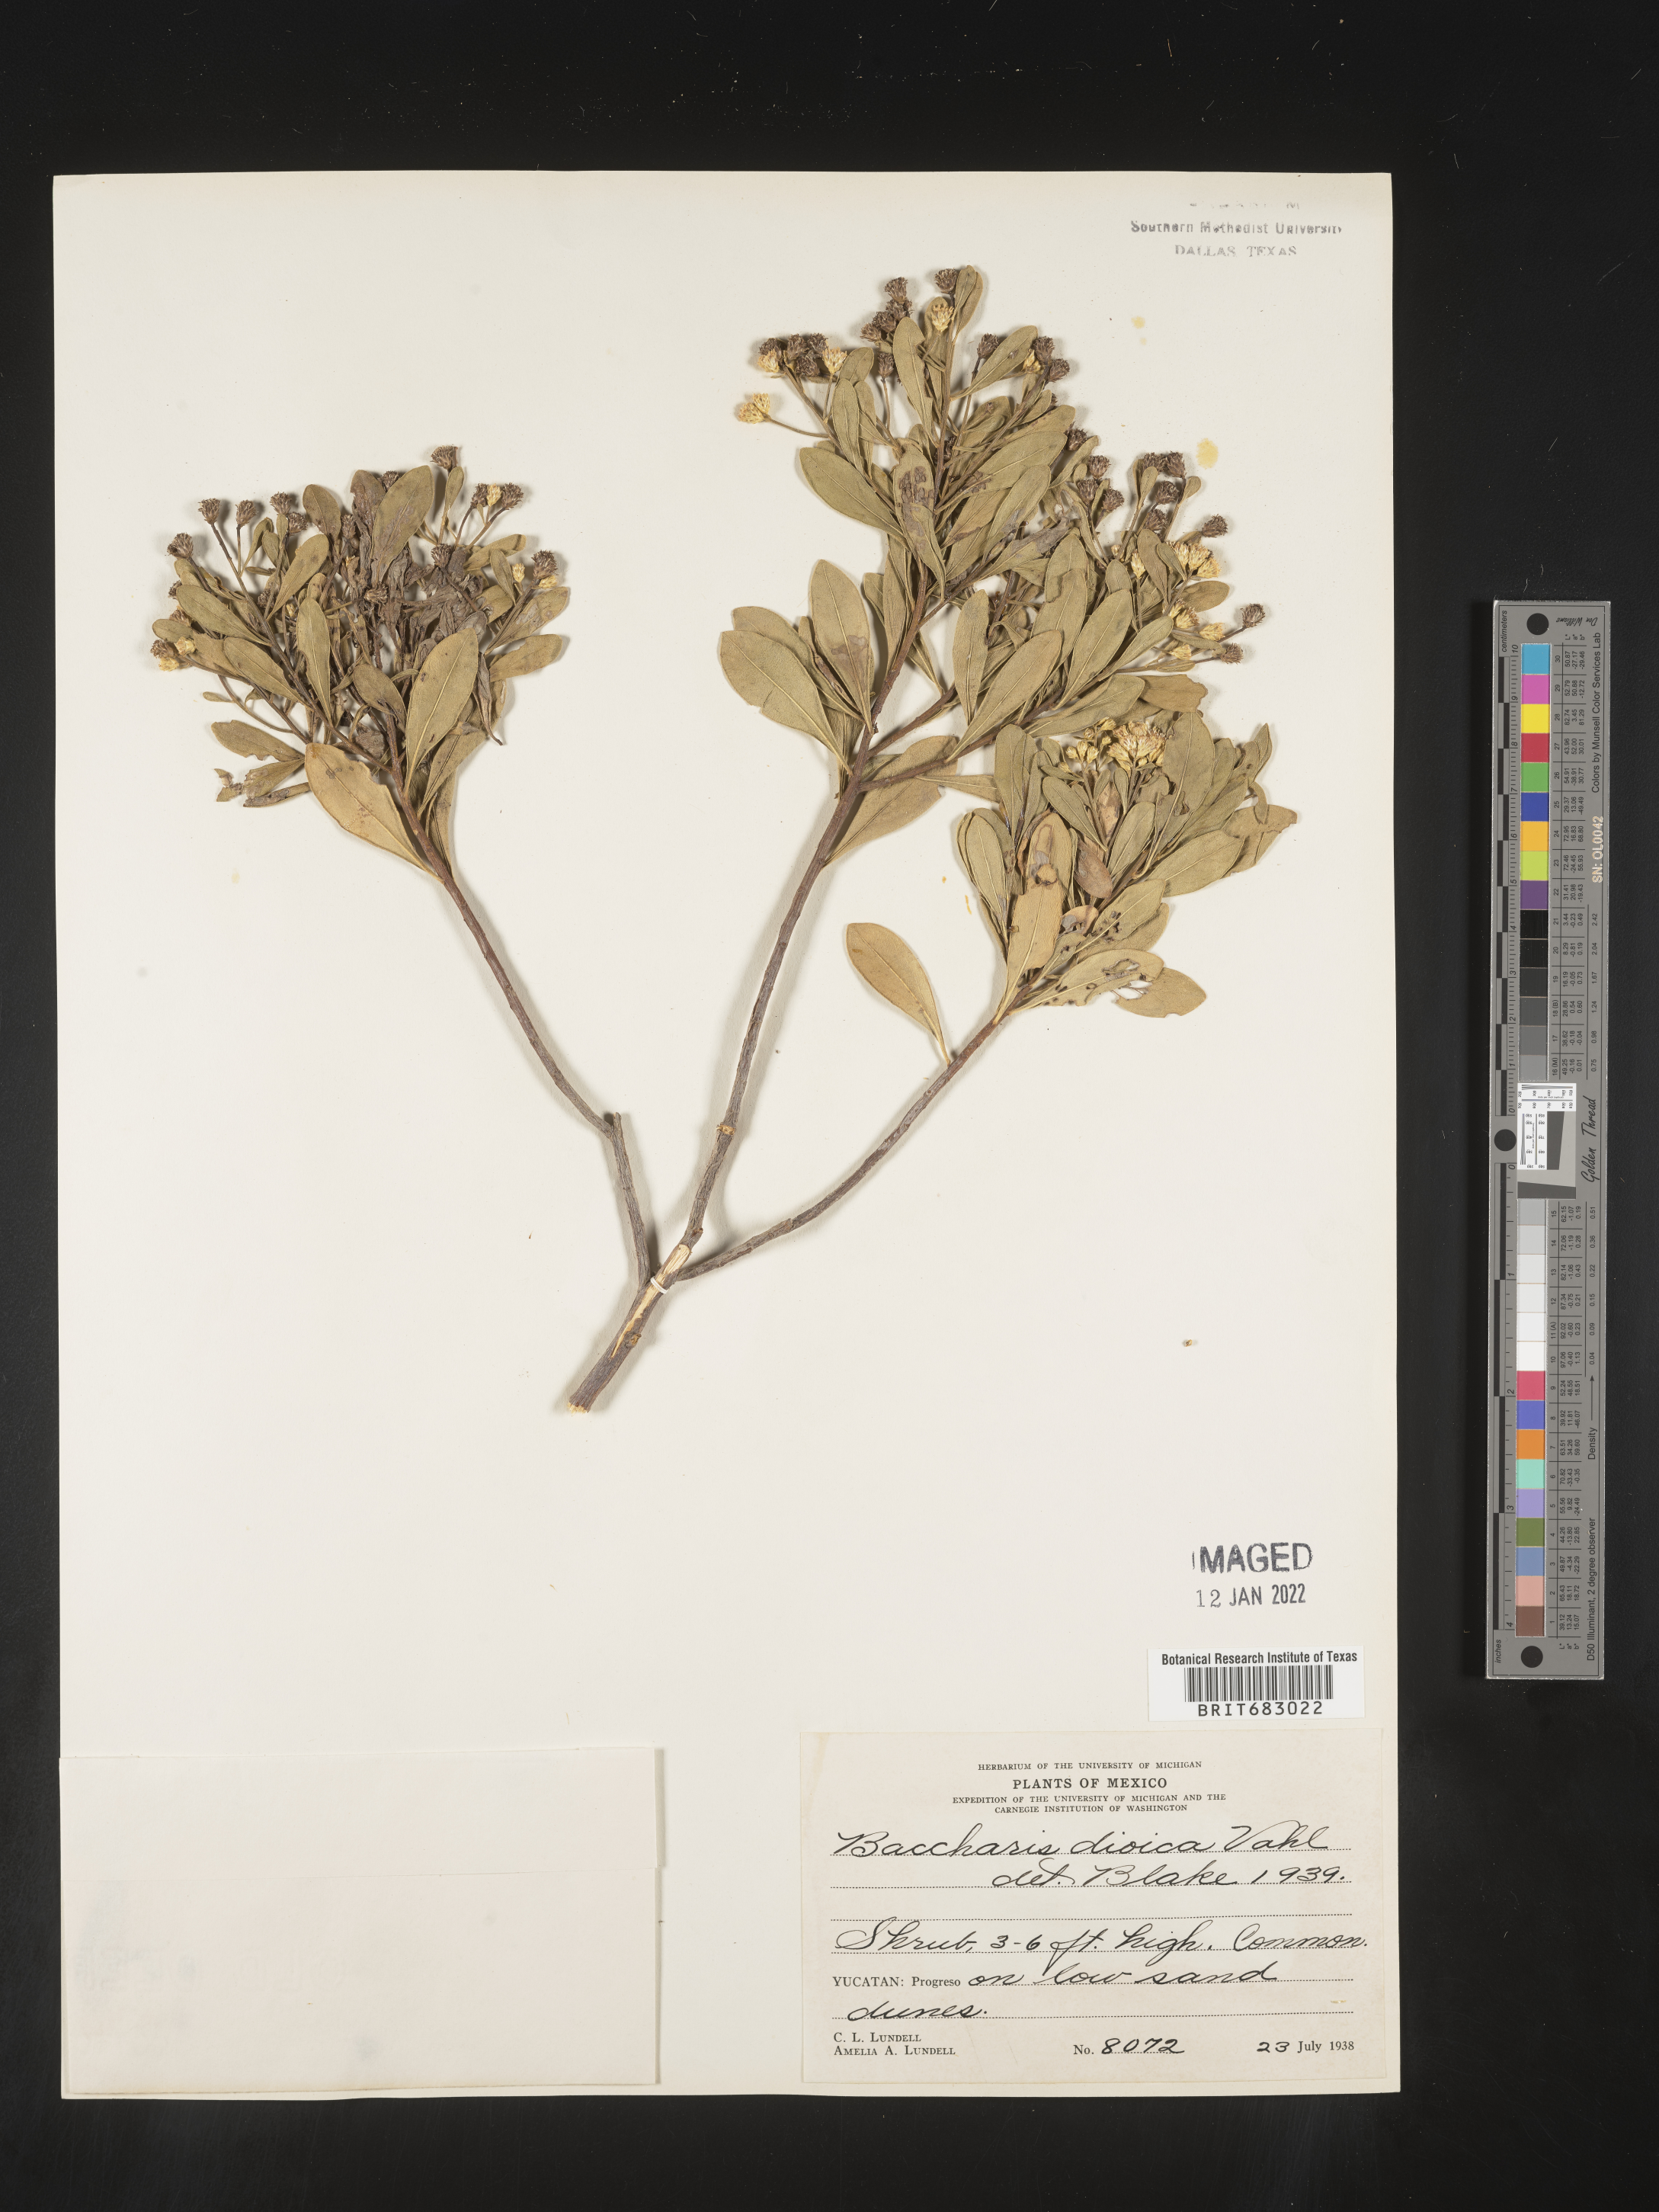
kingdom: Plantae
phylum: Tracheophyta
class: Magnoliopsida
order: Asterales
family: Asteraceae
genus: Baccharis
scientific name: Baccharis dioica
